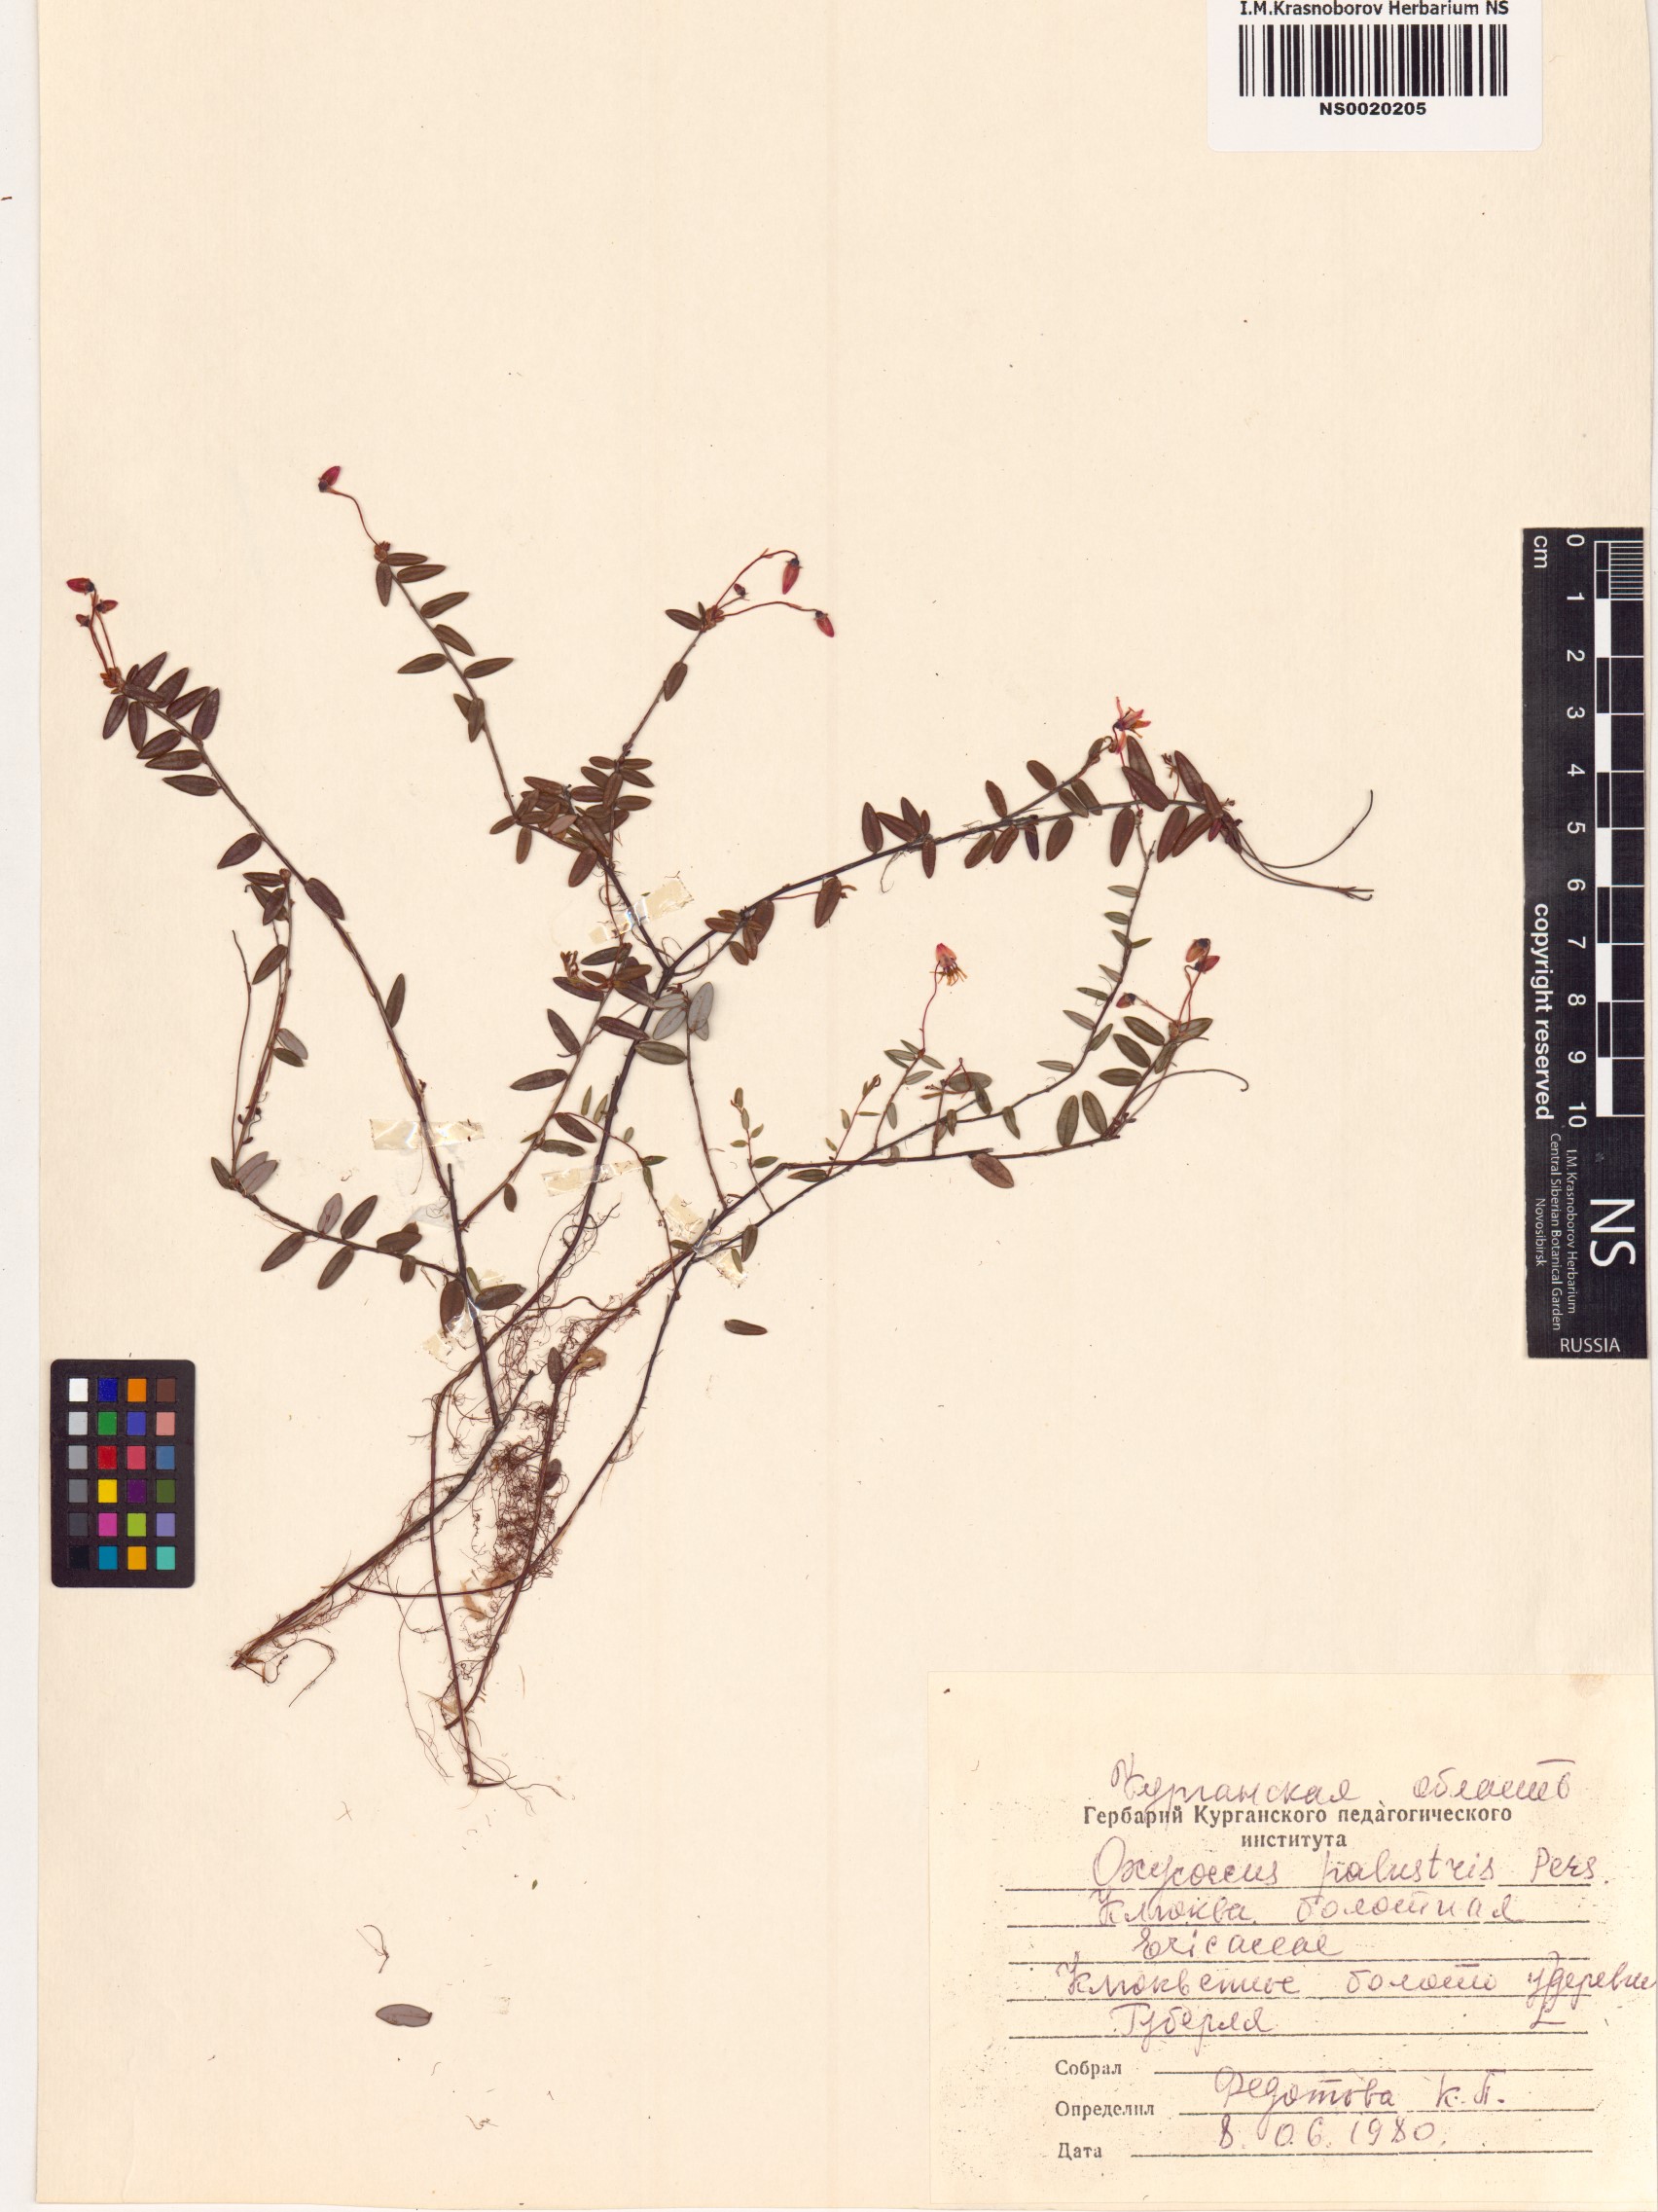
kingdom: Plantae
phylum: Tracheophyta
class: Magnoliopsida
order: Ericales
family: Ericaceae
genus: Vaccinium
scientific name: Vaccinium oxycoccos
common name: Cranberry
